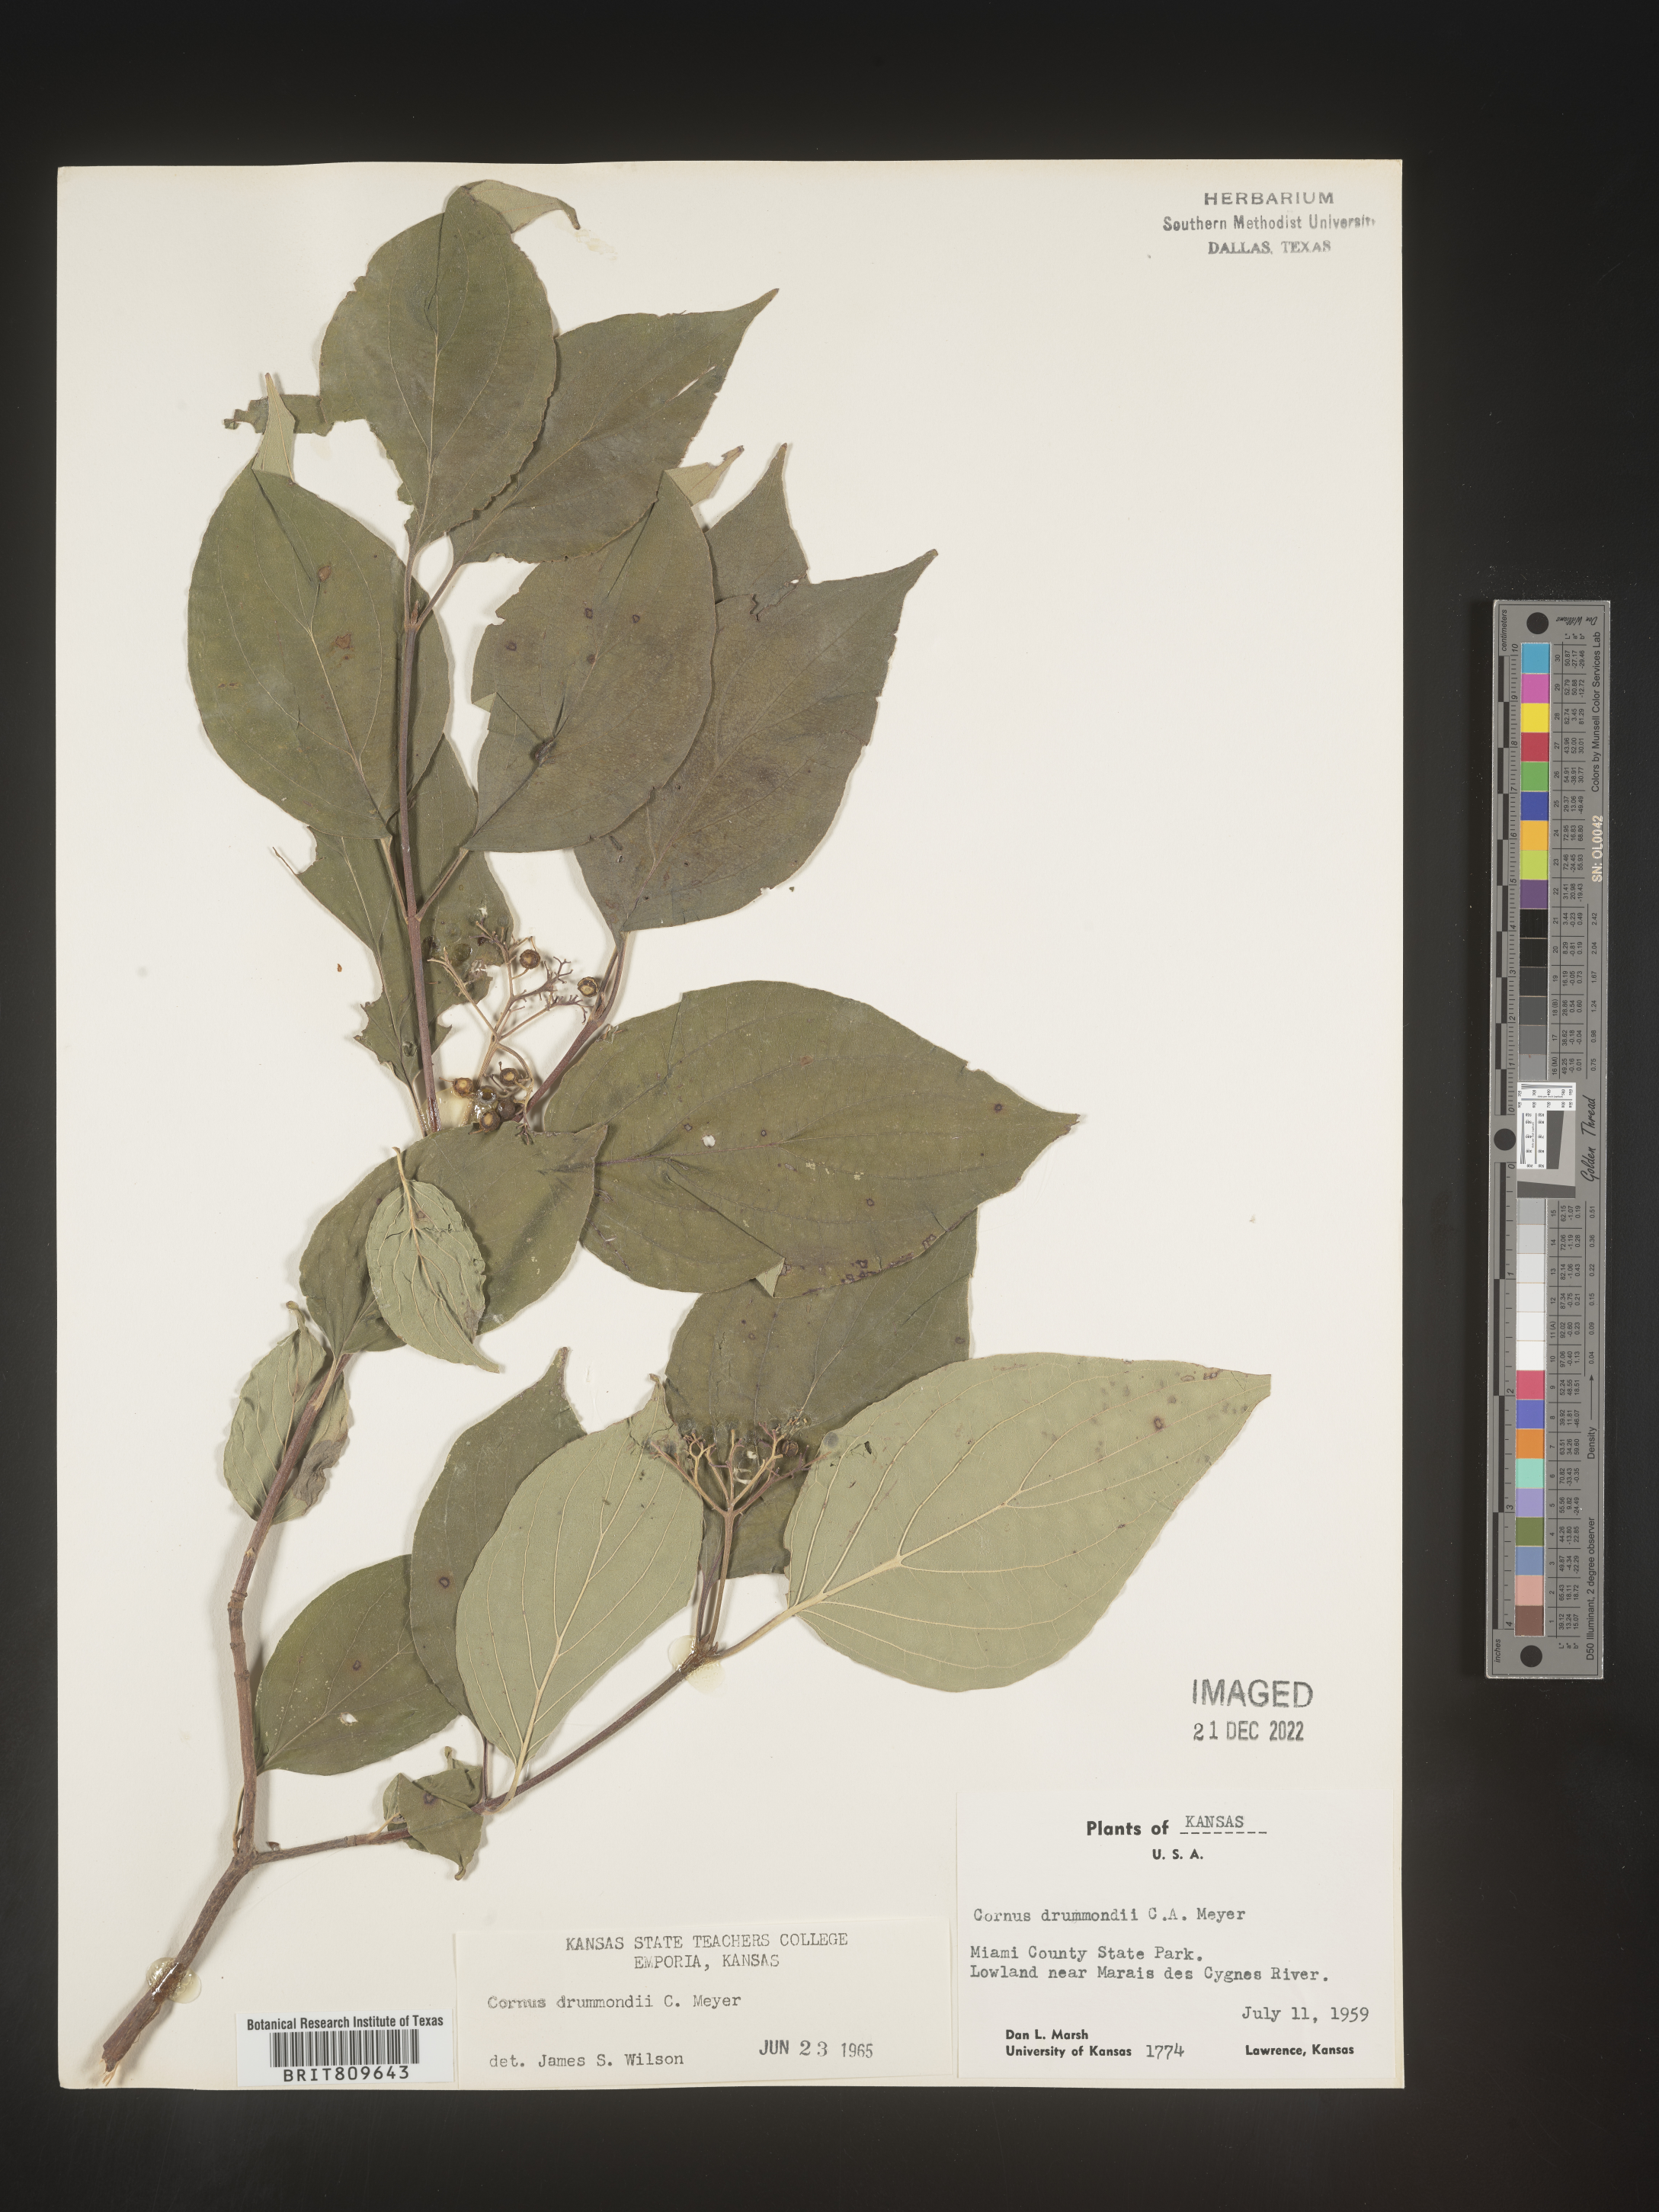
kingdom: Plantae
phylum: Tracheophyta
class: Magnoliopsida
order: Cornales
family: Cornaceae
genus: Cornus
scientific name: Cornus drummondii
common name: Rough-leaf dogwood
